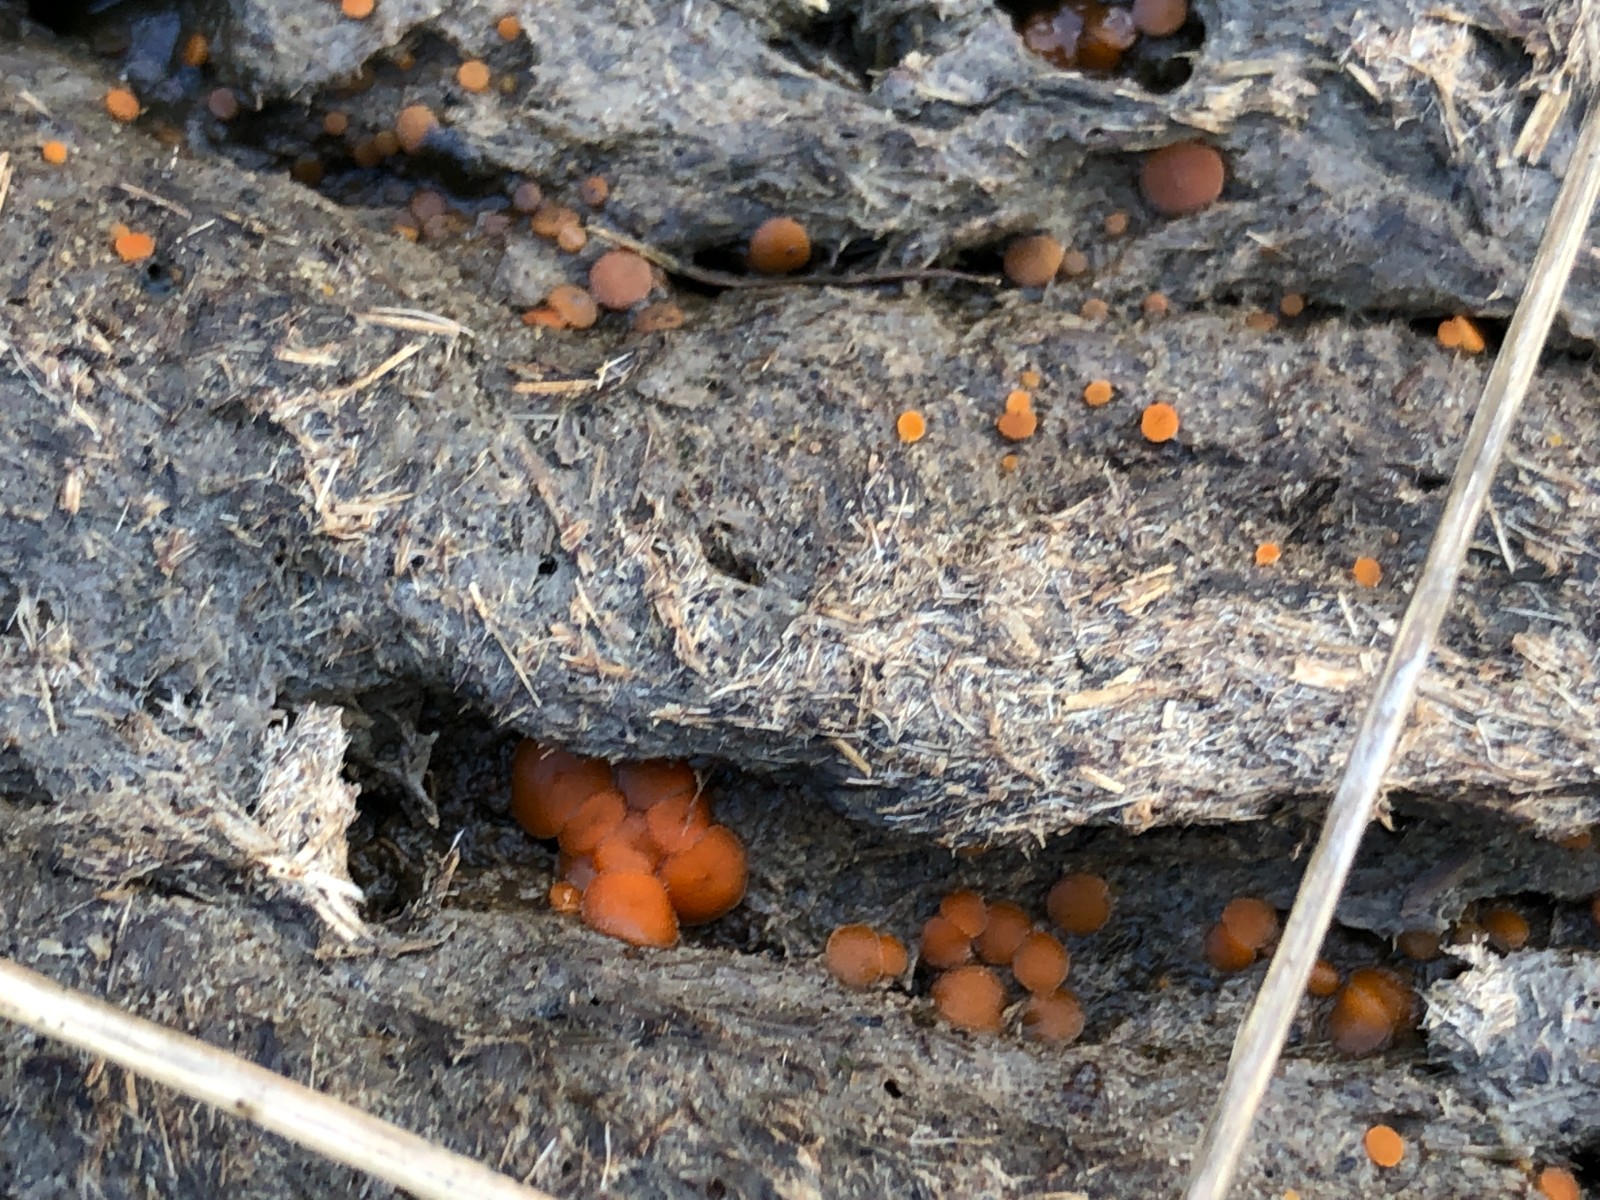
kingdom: Fungi
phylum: Ascomycota
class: Pezizomycetes
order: Pezizales
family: Pyronemataceae
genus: Cheilymenia
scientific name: Cheilymenia granulata
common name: møgbæger
